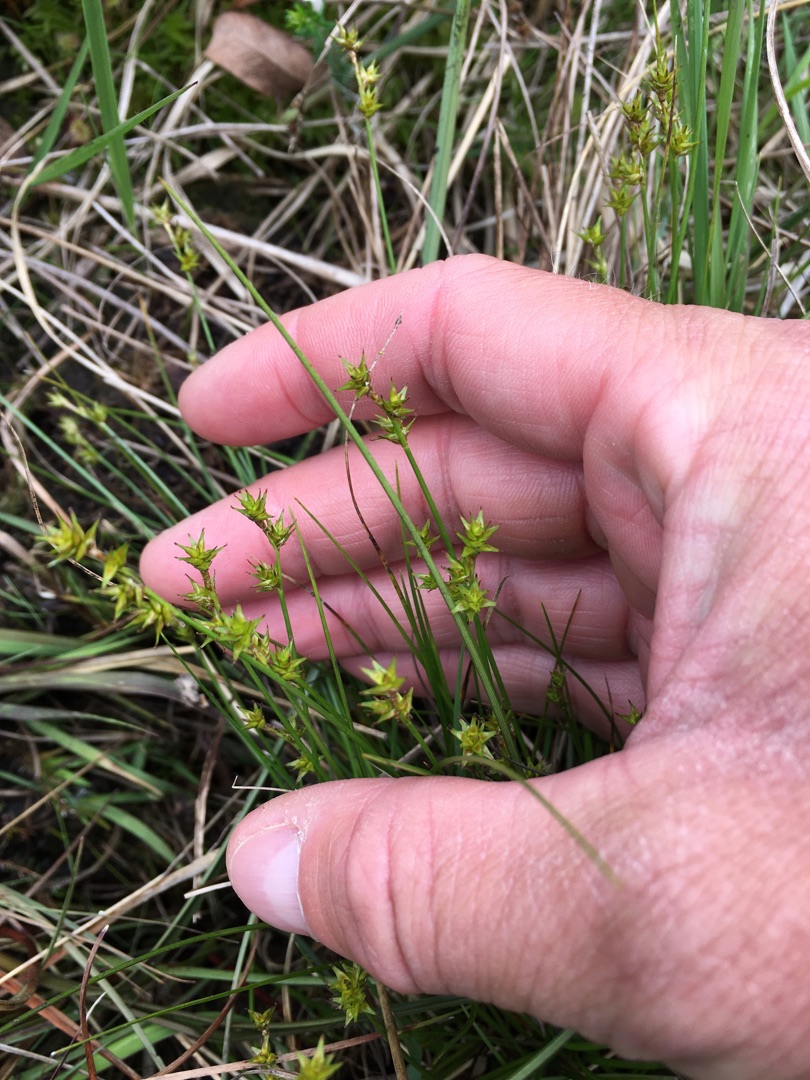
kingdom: Plantae
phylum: Tracheophyta
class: Liliopsida
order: Poales
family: Cyperaceae
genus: Carex
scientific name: Carex echinata
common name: Stjerne-star
